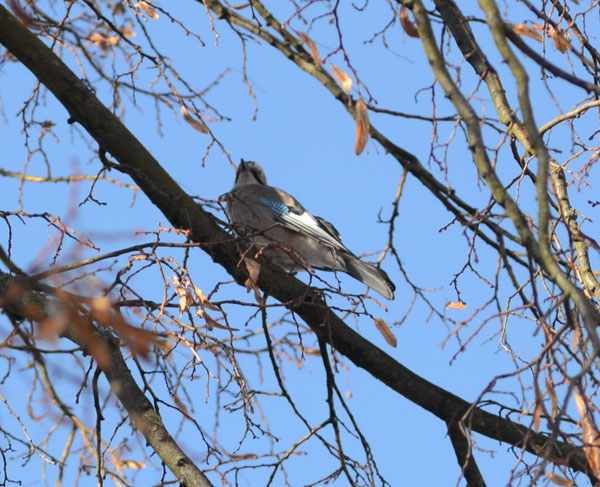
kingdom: Animalia
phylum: Chordata
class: Aves
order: Passeriformes
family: Corvidae
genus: Garrulus
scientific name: Garrulus glandarius
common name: Eurasian jay
